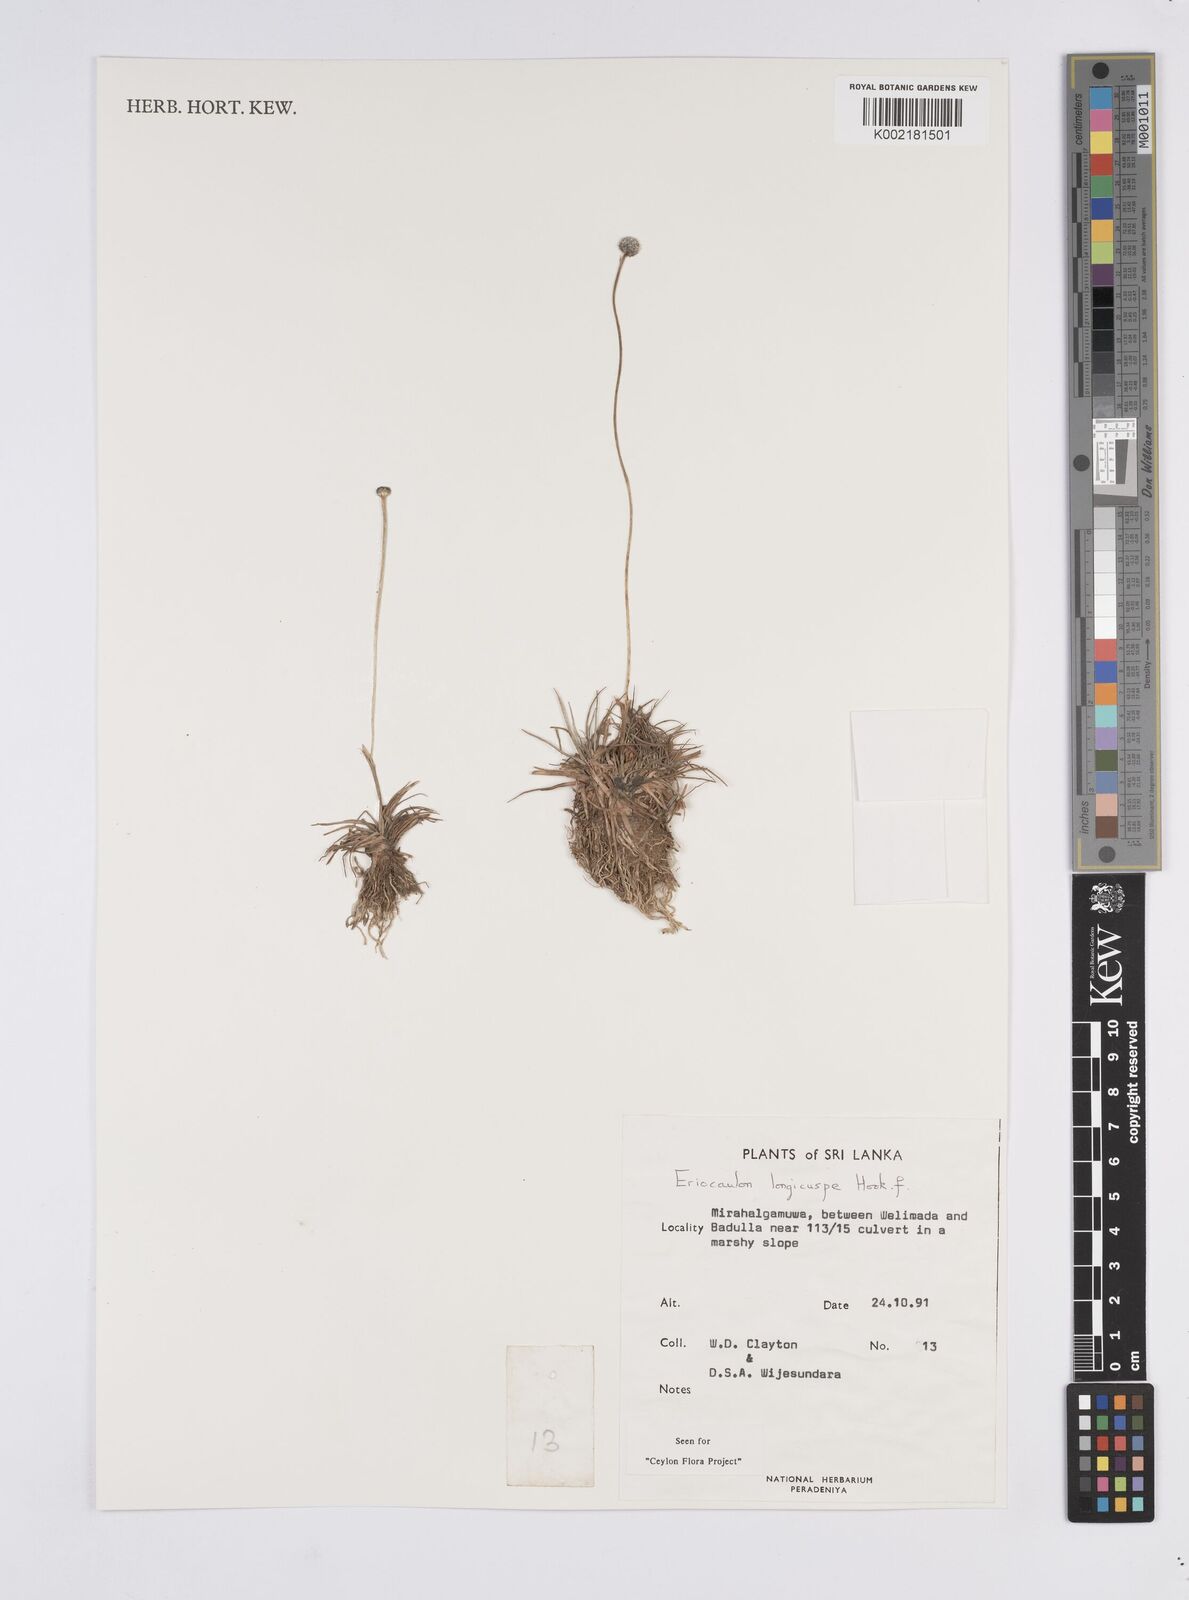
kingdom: Plantae
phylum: Tracheophyta
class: Liliopsida
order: Poales
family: Eriocaulaceae
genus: Eriocaulon
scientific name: Eriocaulon longicuspe
